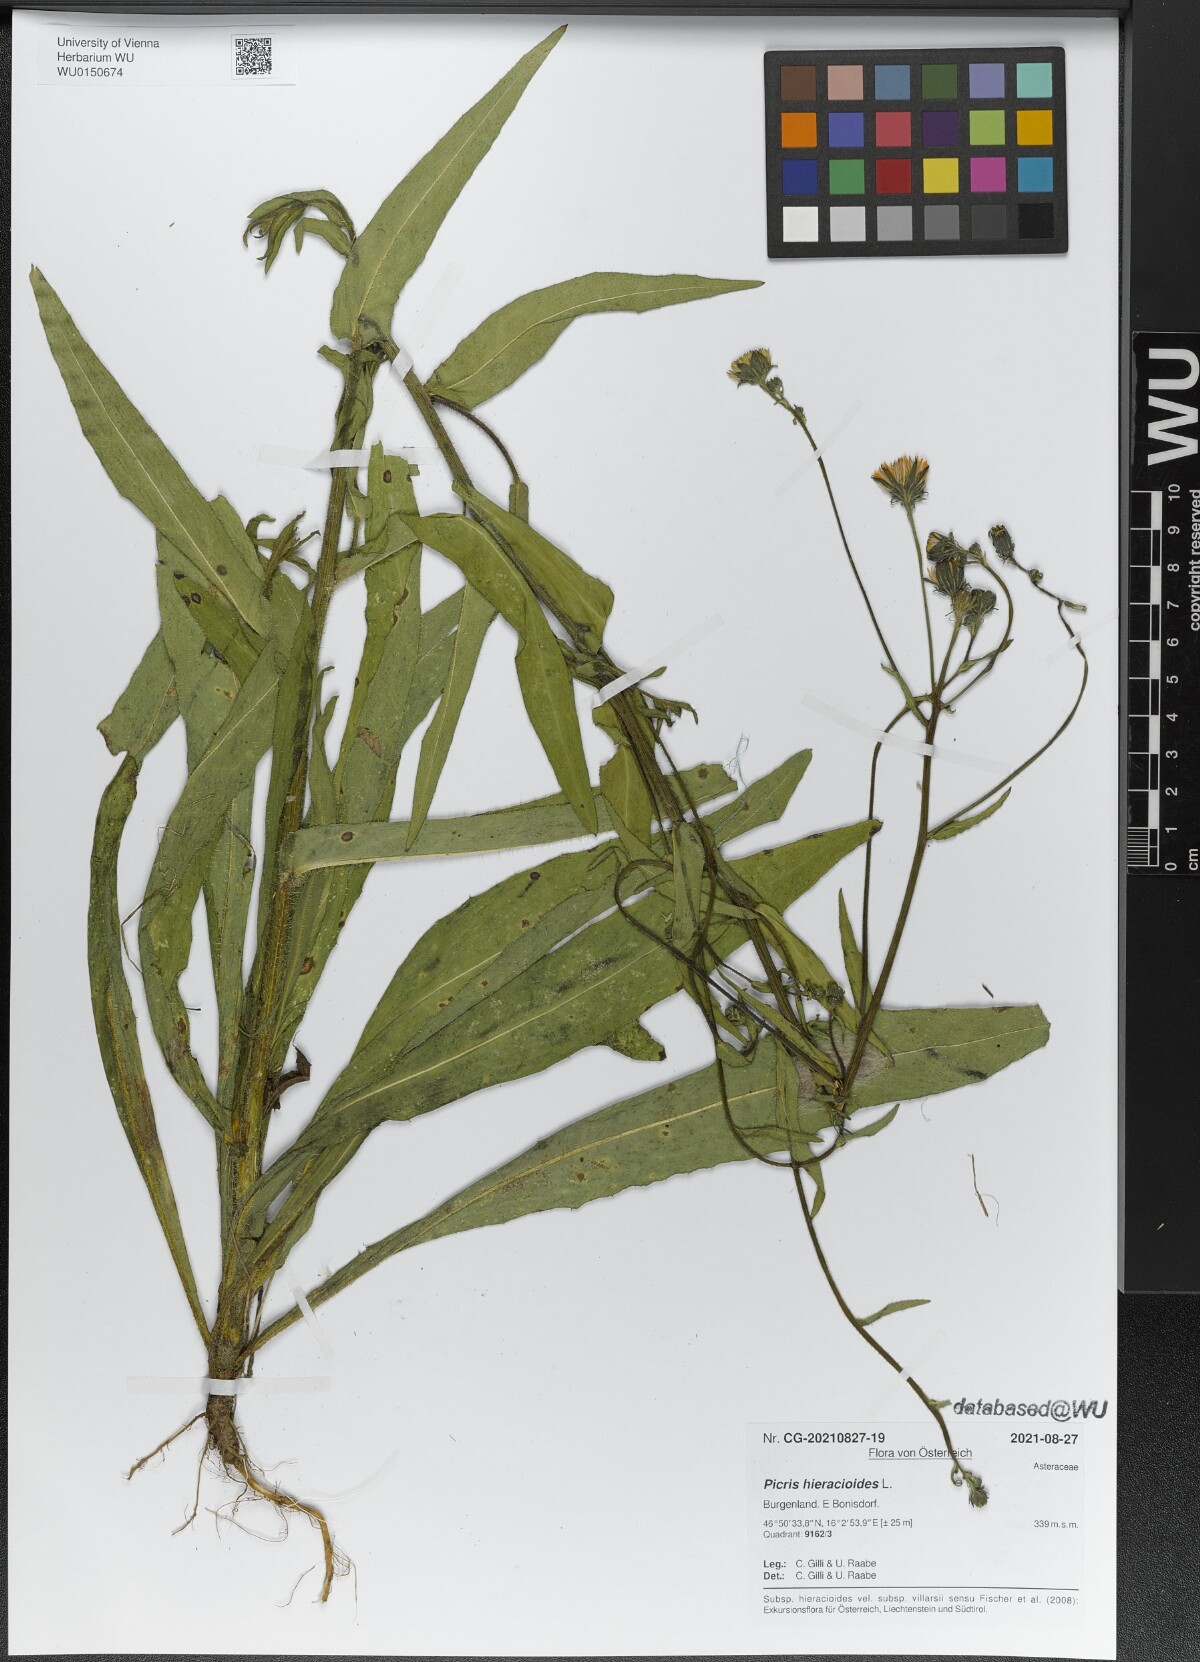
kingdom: Plantae
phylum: Tracheophyta
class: Magnoliopsida
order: Asterales
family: Asteraceae
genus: Picris
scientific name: Picris hieracioides
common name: Hawkweed oxtongue
